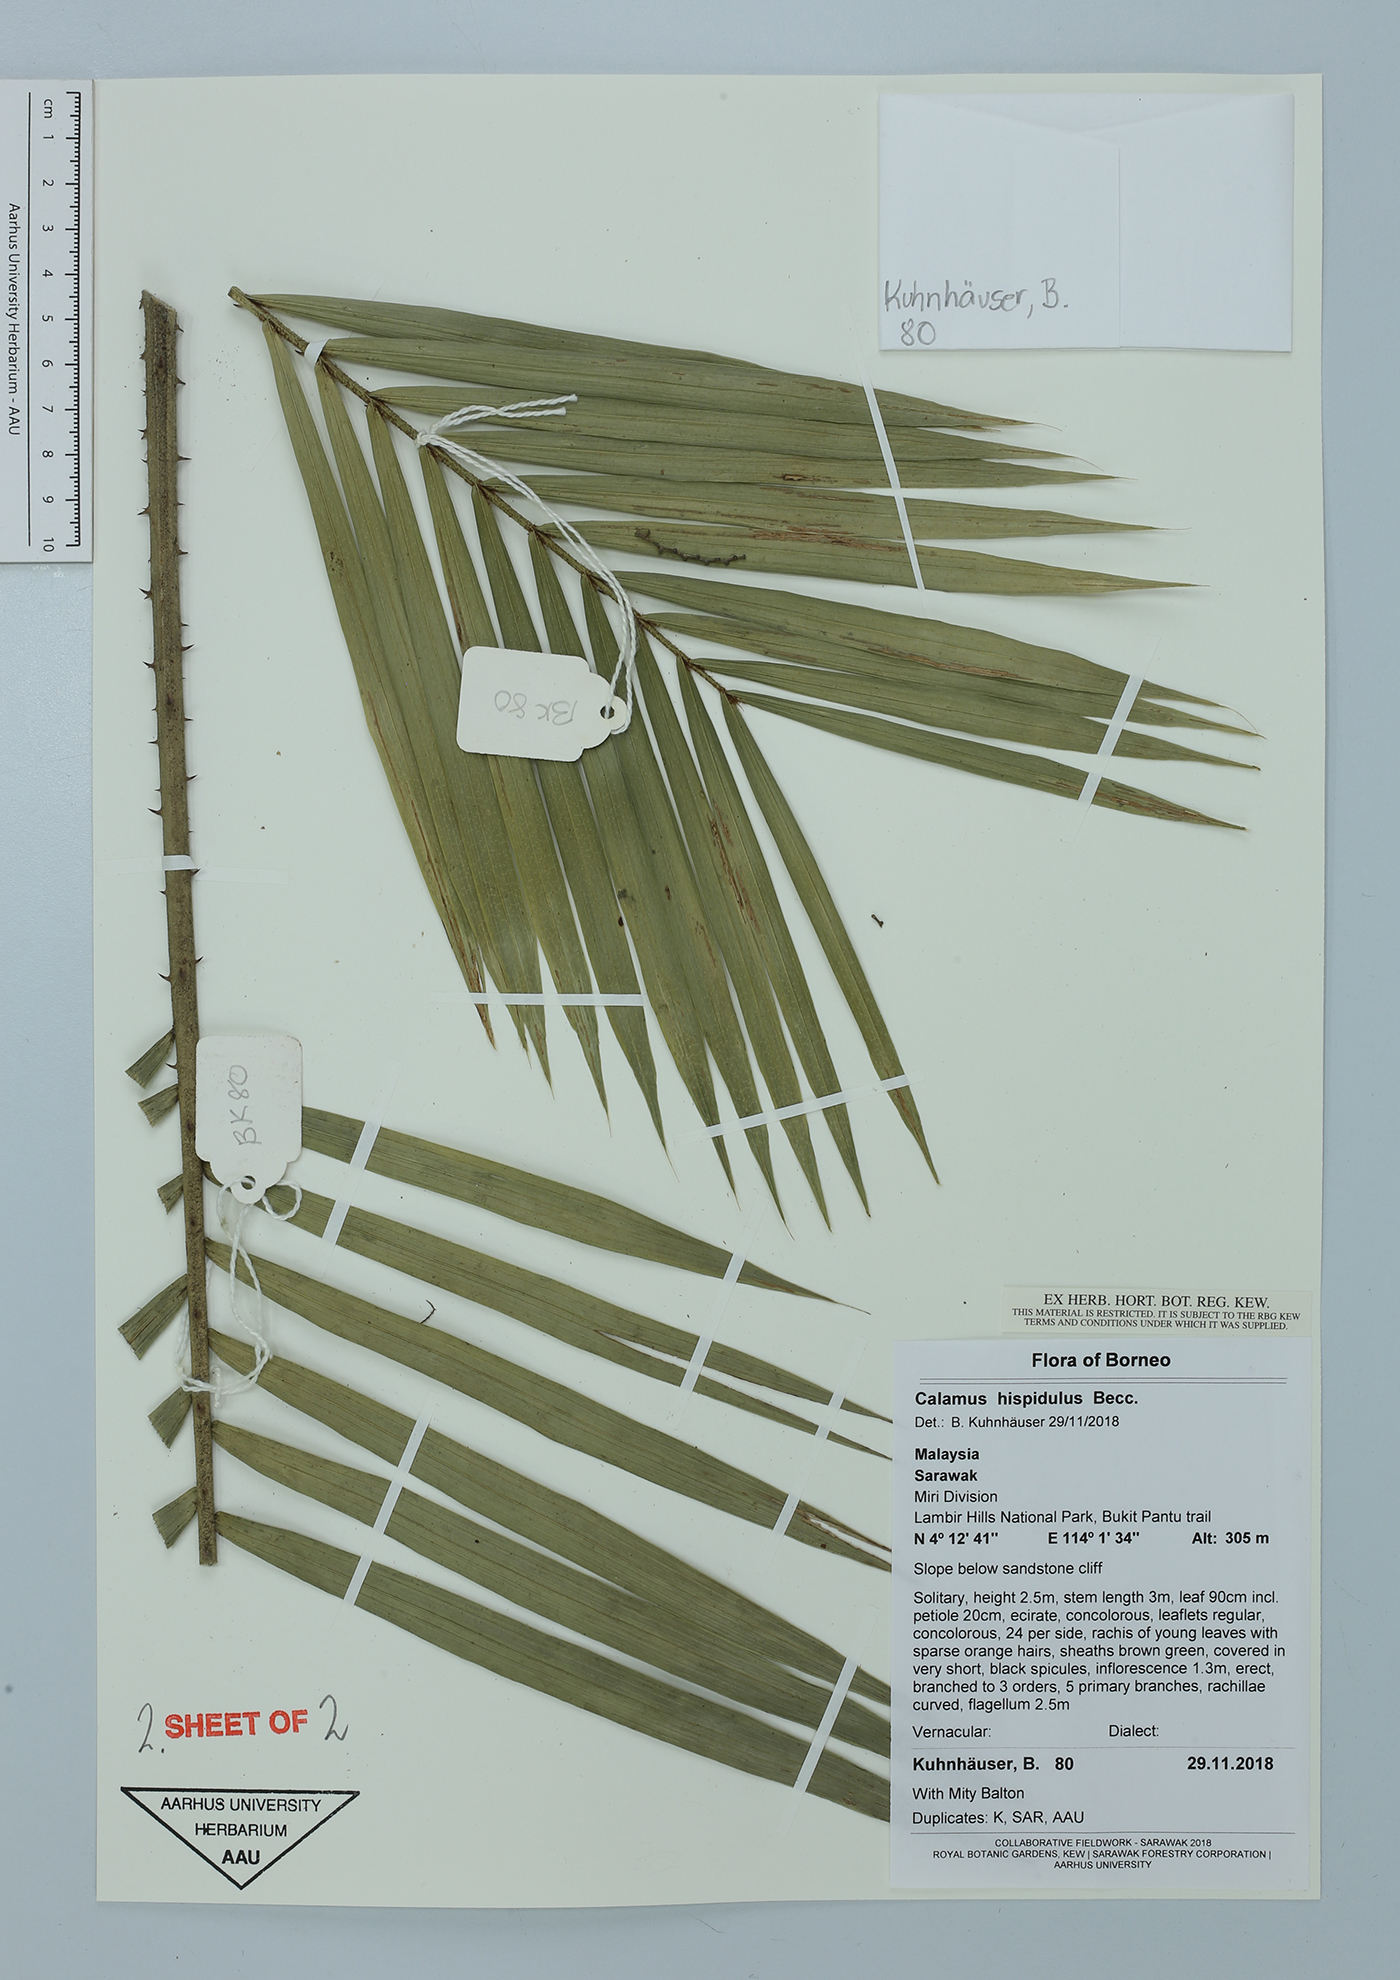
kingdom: Plantae
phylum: Tracheophyta
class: Liliopsida
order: Arecales
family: Arecaceae
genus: Calamus
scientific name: Calamus exilis
